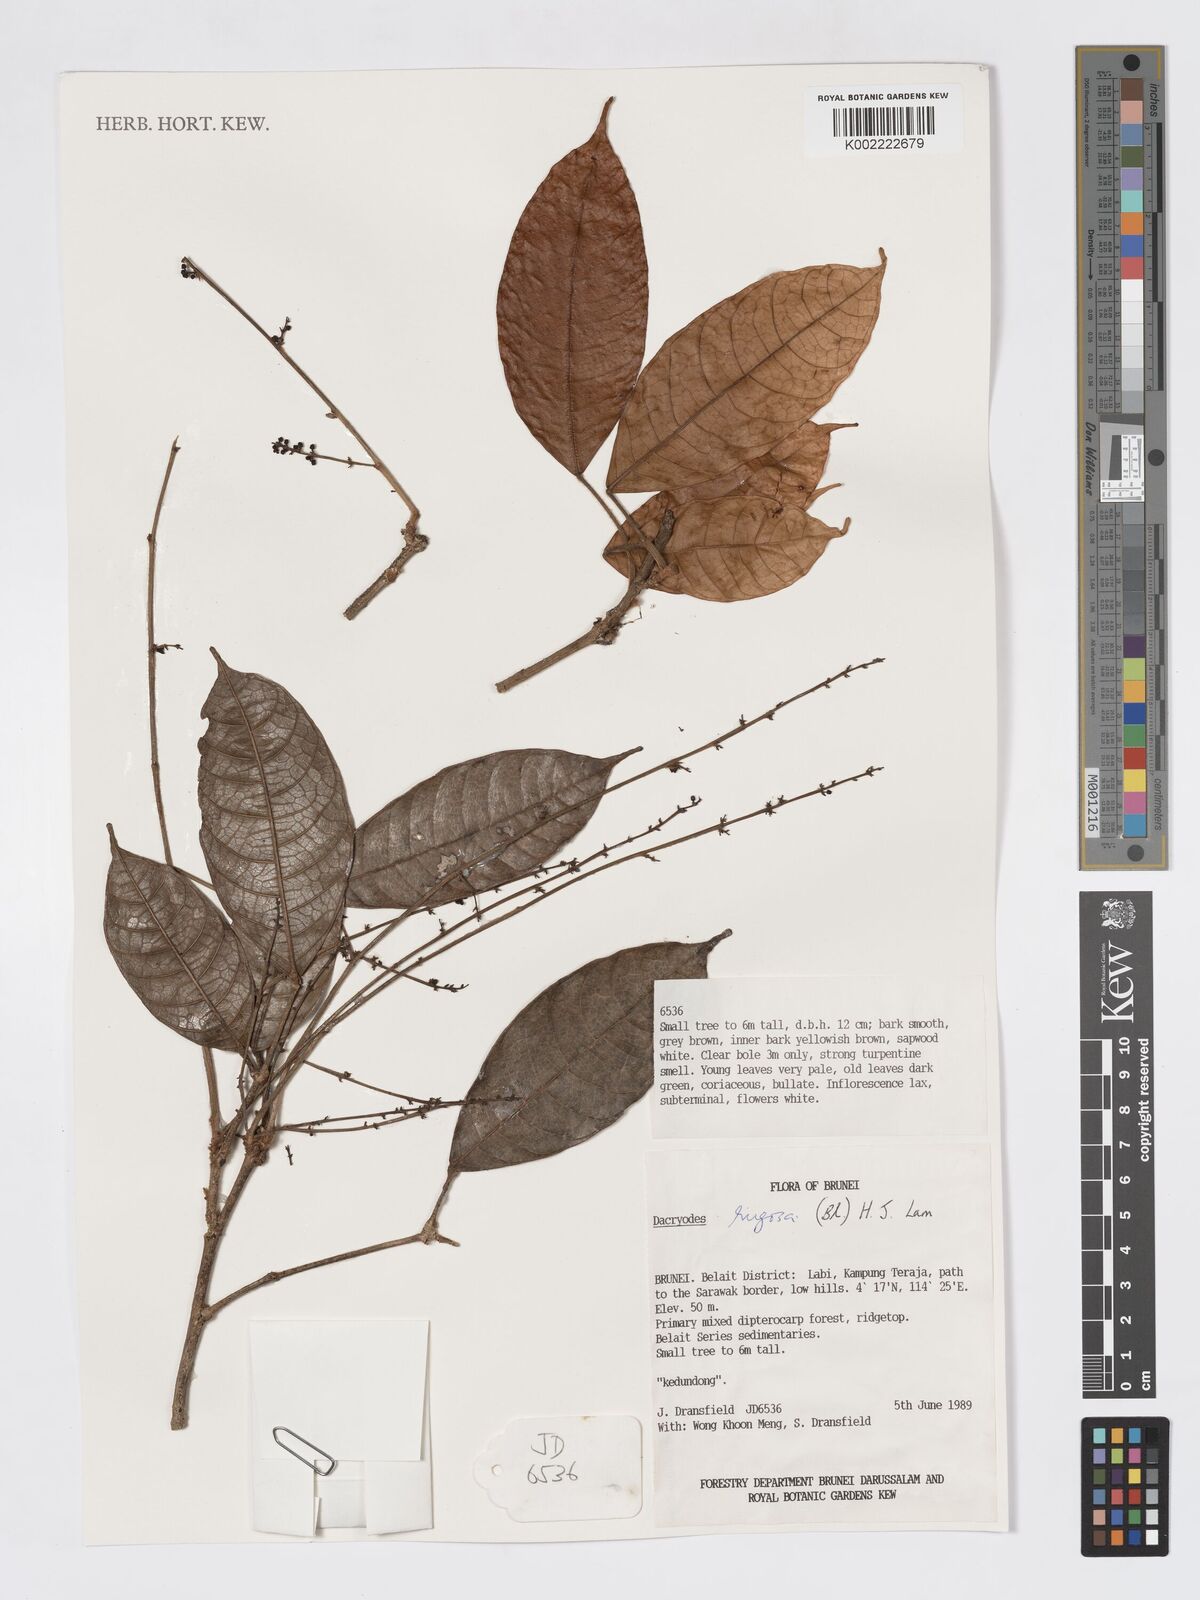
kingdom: Plantae
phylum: Tracheophyta
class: Magnoliopsida
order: Sapindales
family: Burseraceae
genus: Dacryodes
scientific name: Dacryodes rugosa
